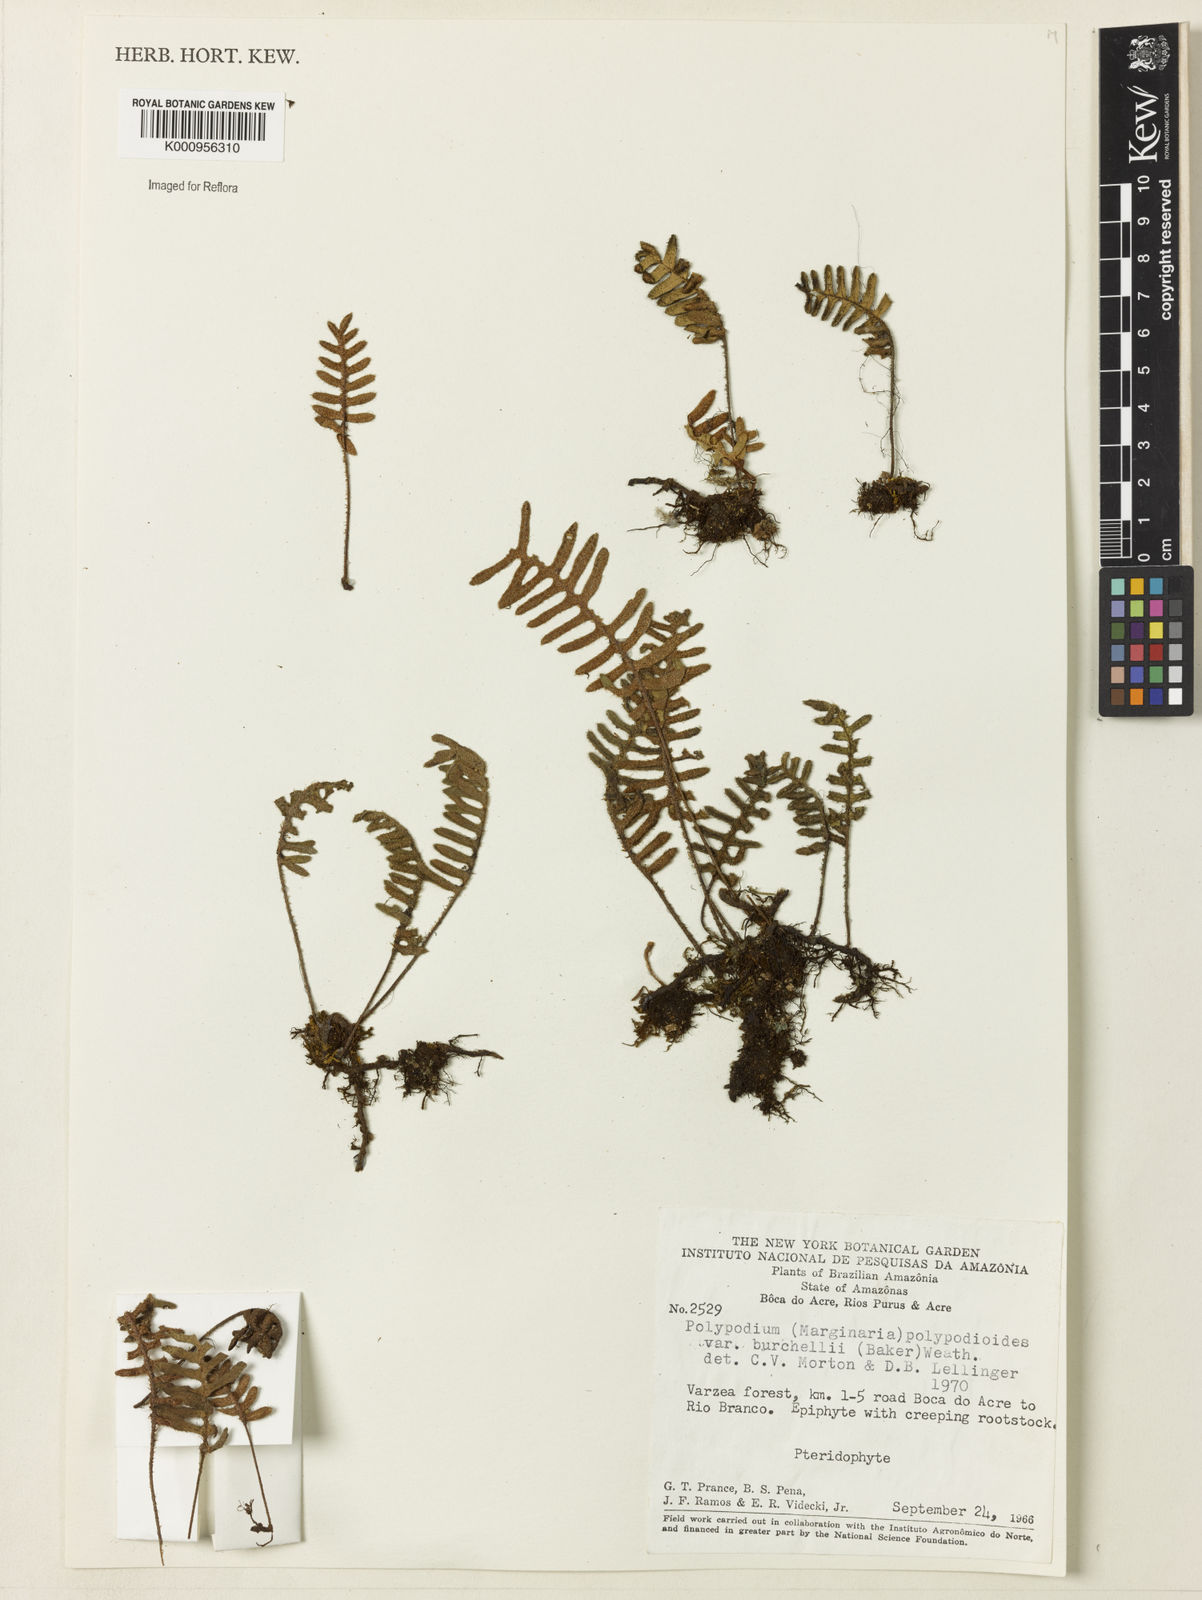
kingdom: Plantae
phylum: Tracheophyta
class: Polypodiopsida
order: Polypodiales
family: Polypodiaceae
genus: Pleopeltis
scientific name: Pleopeltis burchellii
